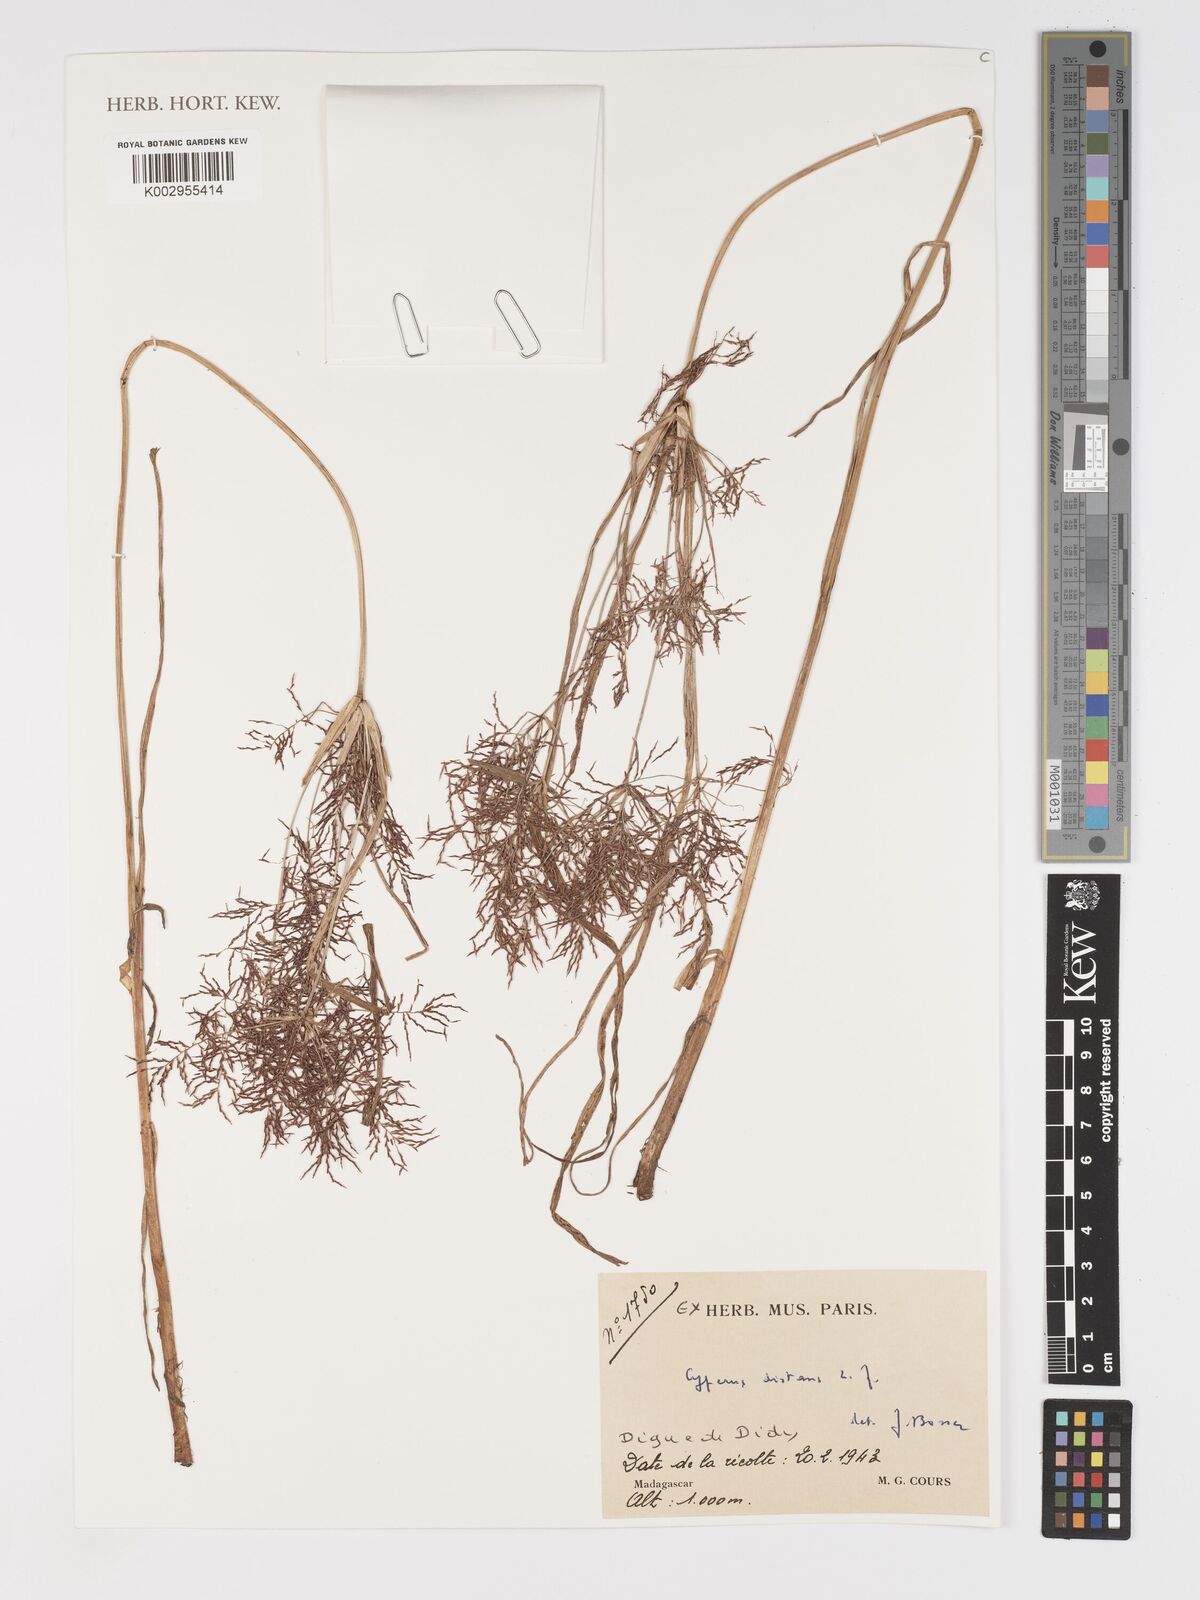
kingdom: Plantae
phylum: Tracheophyta
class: Liliopsida
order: Poales
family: Cyperaceae
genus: Cyperus
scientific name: Cyperus distans
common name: Slender cyperus
